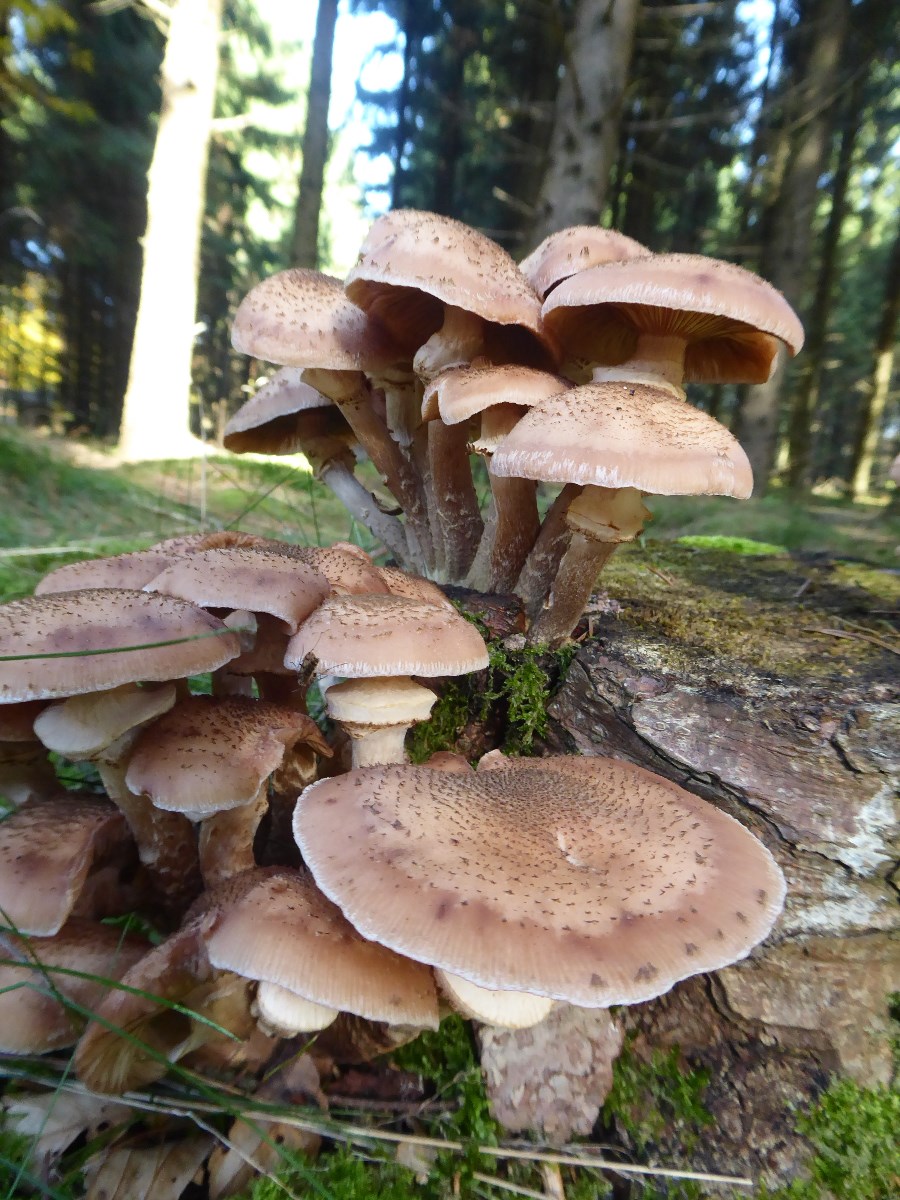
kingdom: Fungi
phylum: Basidiomycota
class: Agaricomycetes
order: Agaricales
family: Physalacriaceae
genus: Armillaria
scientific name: Armillaria ostoyae
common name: mørk honningsvamp
